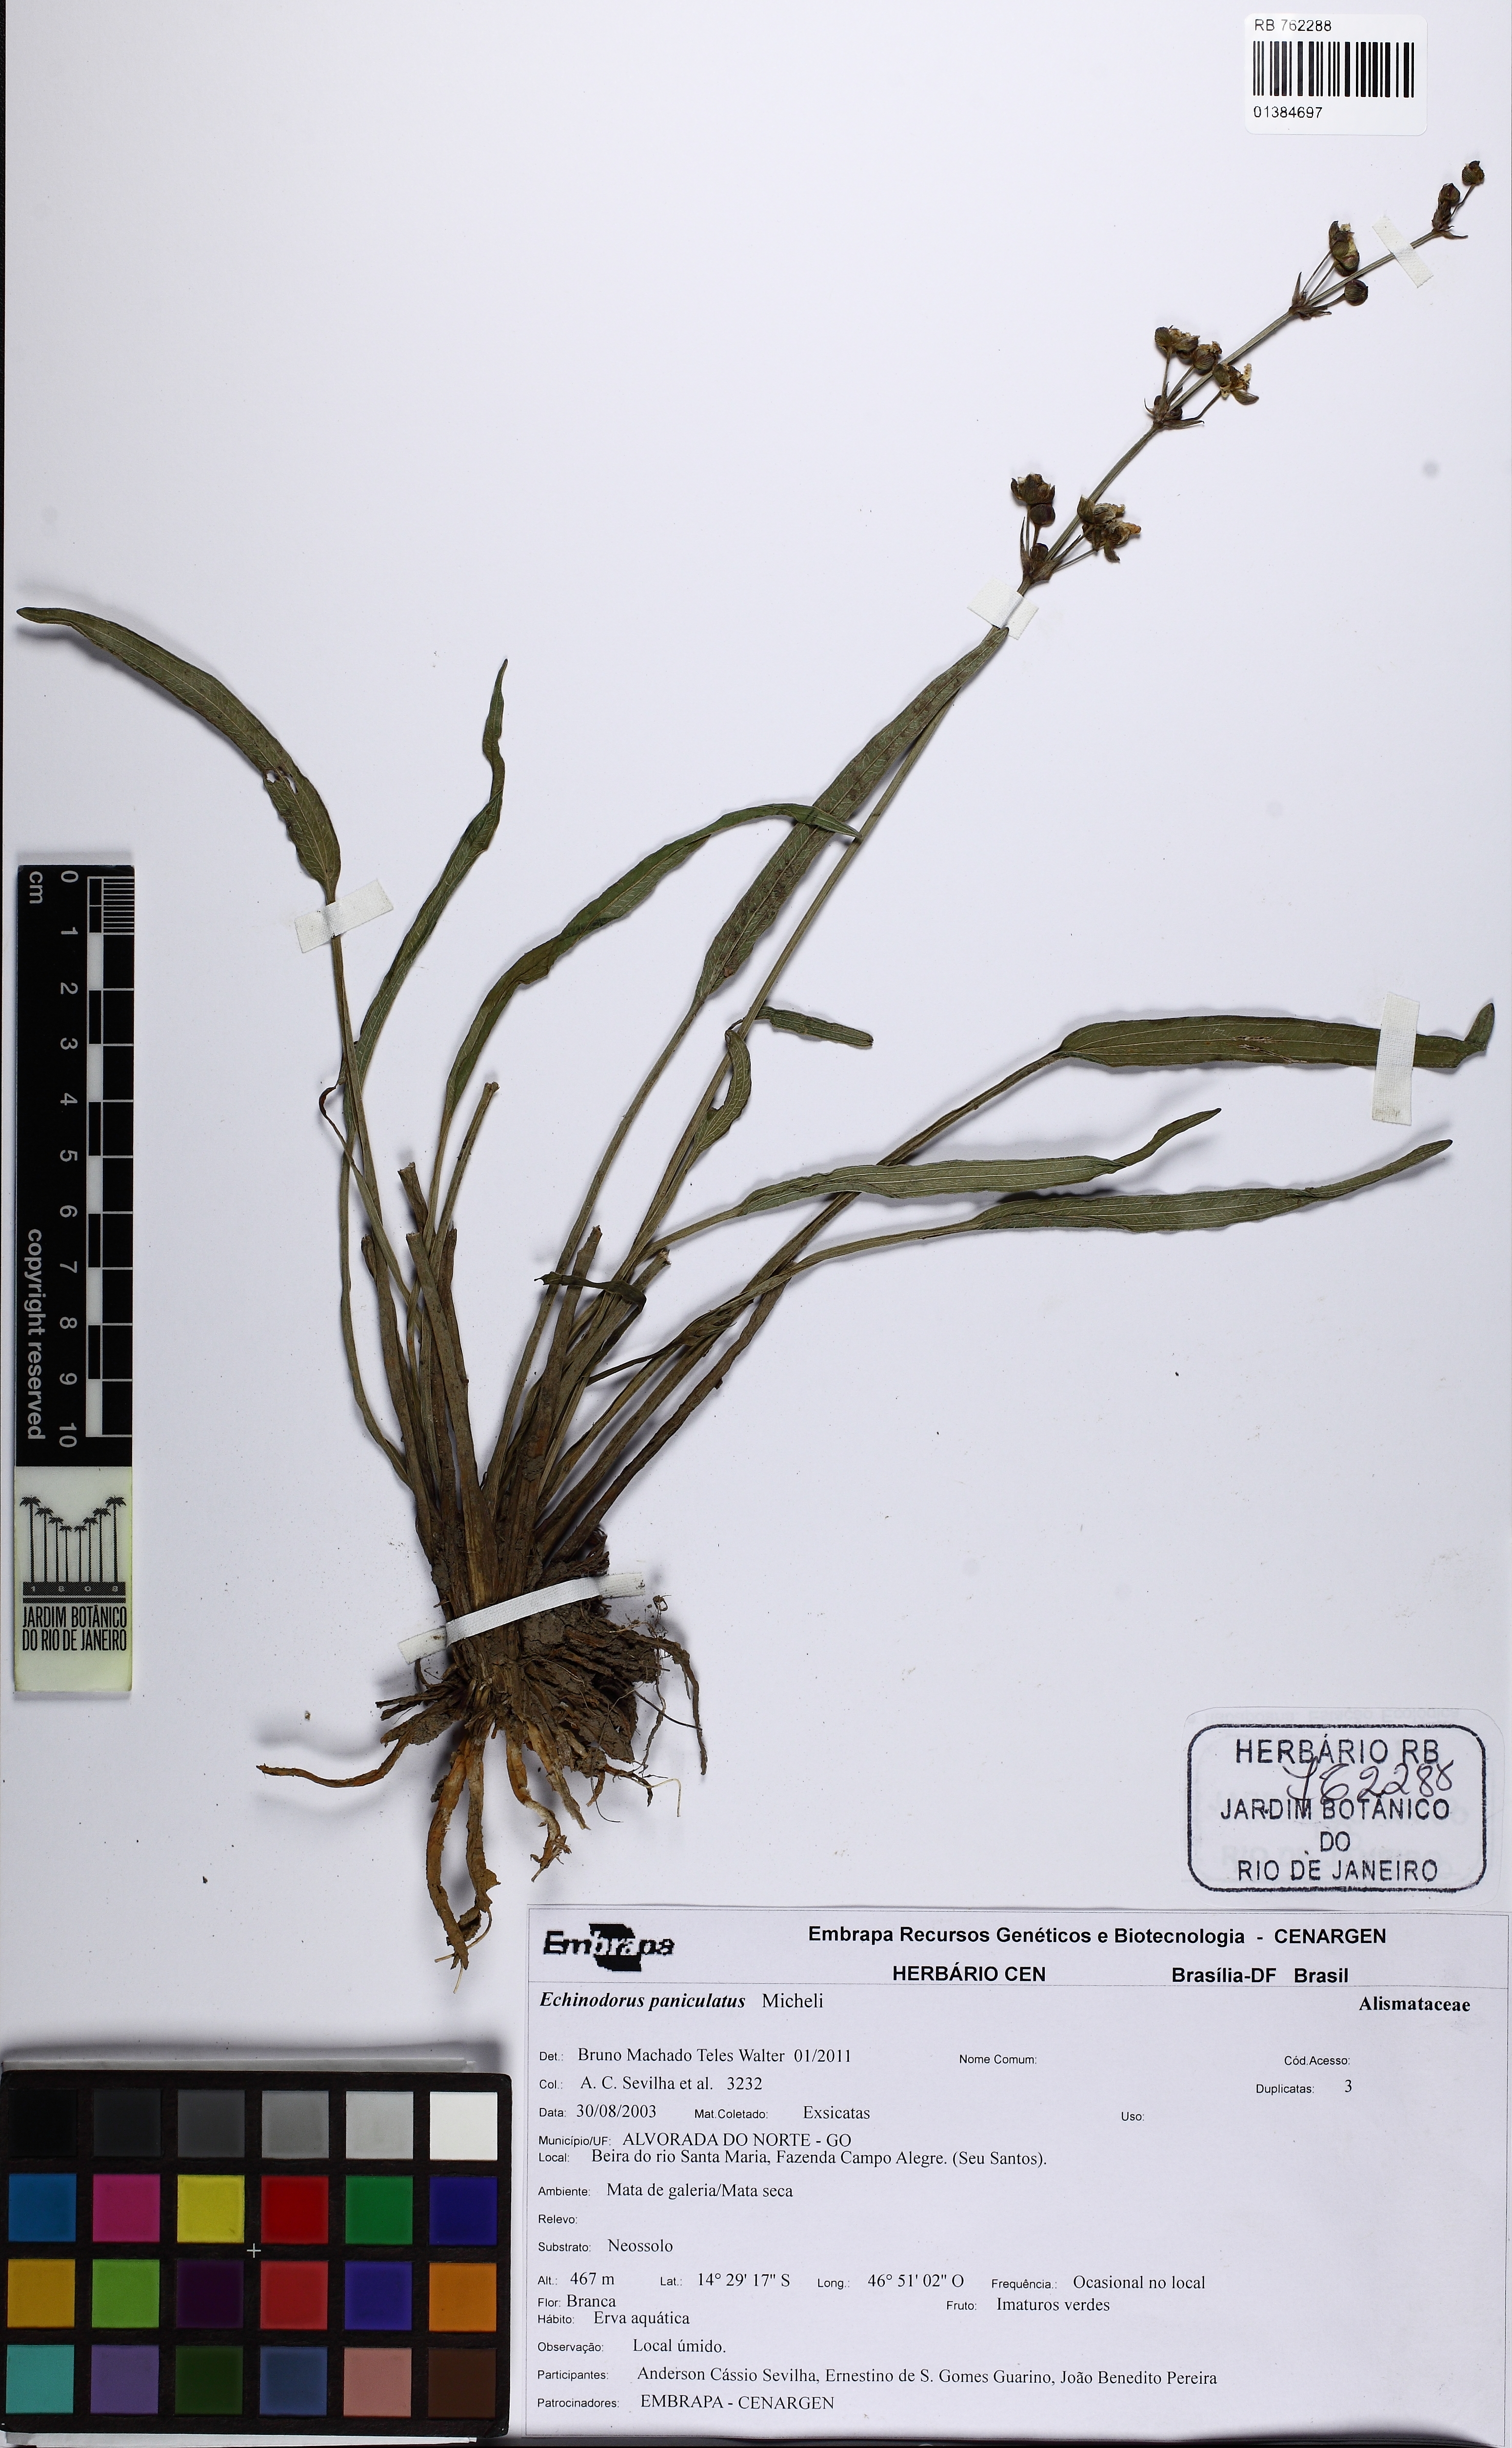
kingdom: Plantae
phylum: Tracheophyta
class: Liliopsida
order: Alismatales
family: Alismataceae
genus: Aquarius
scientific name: Aquarius paniculatus
